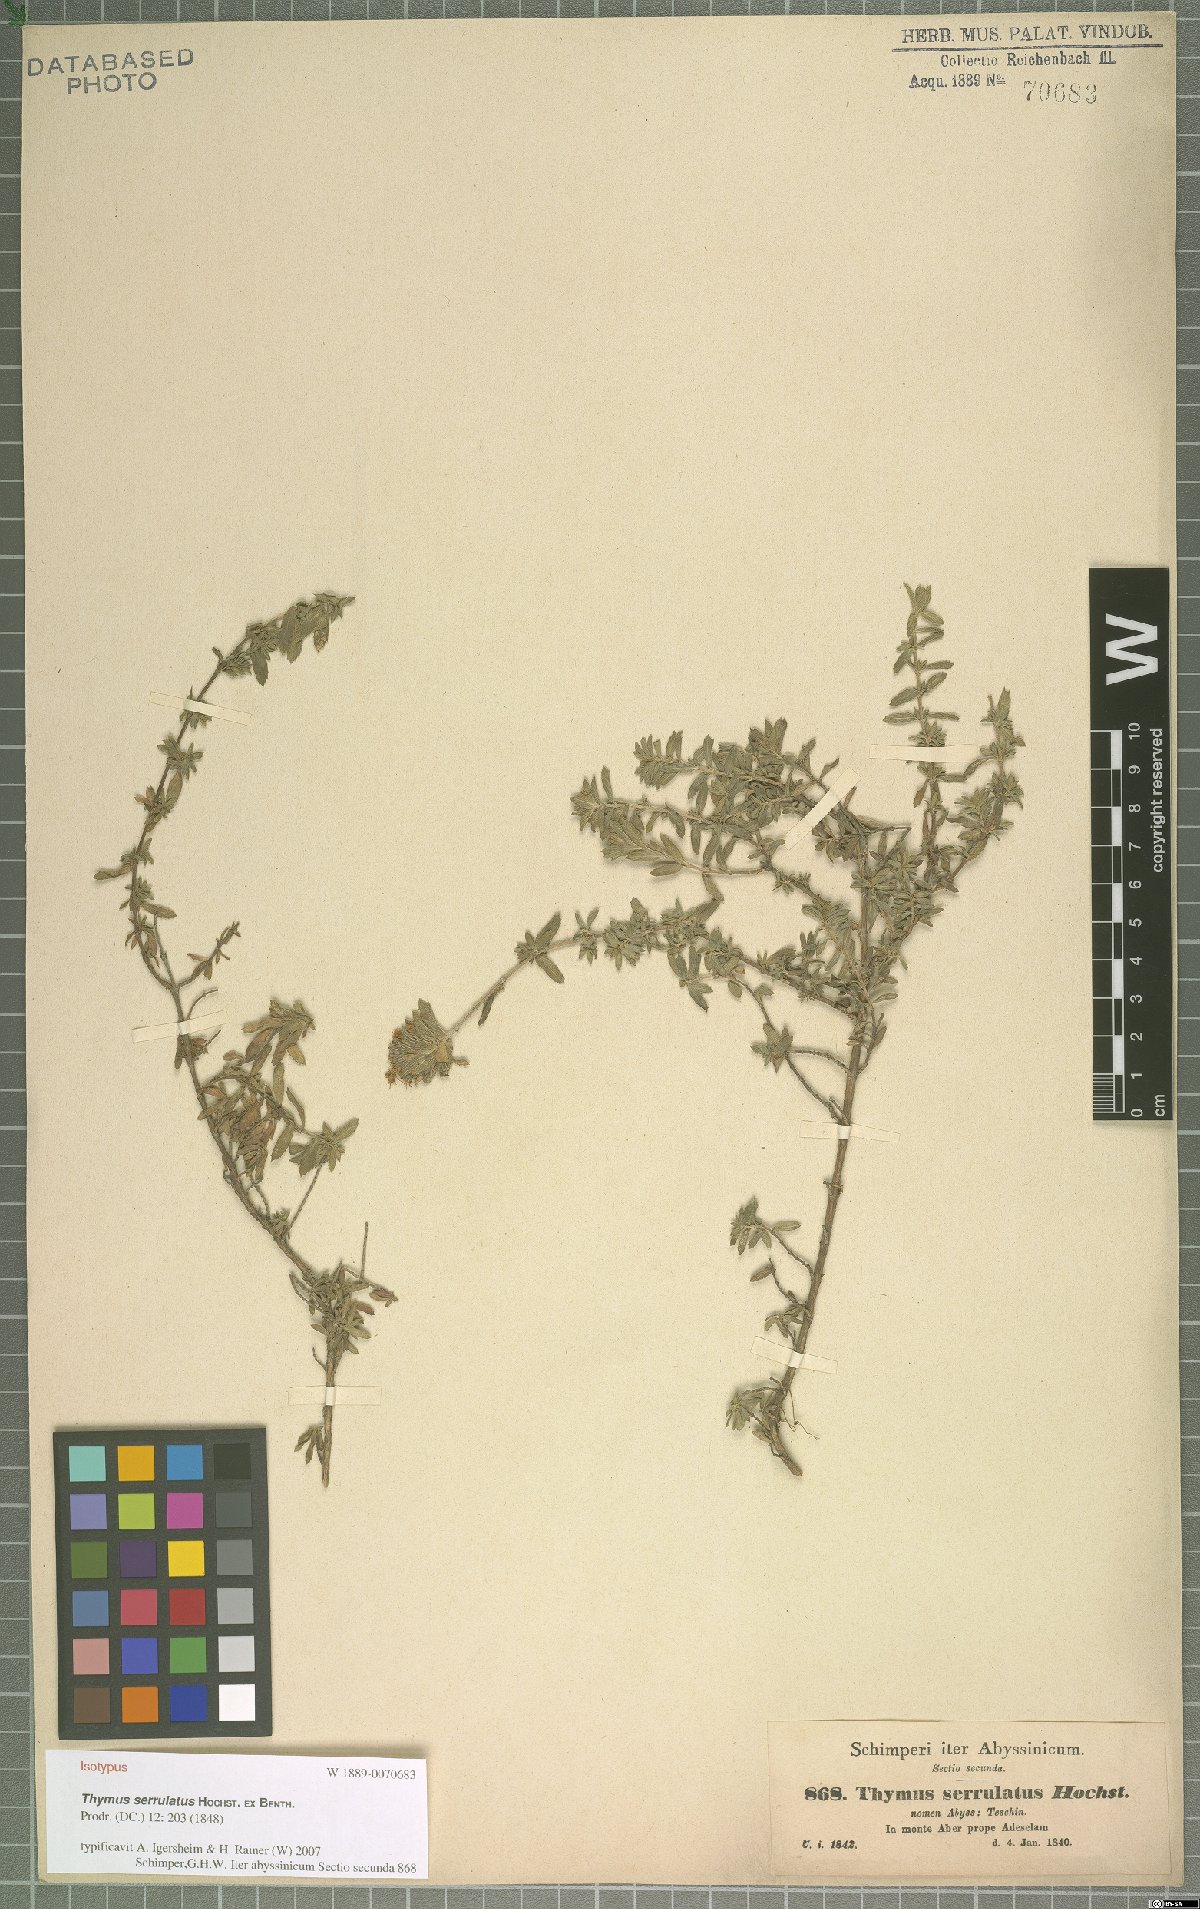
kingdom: Plantae
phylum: Tracheophyta
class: Magnoliopsida
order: Lamiales
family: Lamiaceae
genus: Thymus
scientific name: Thymus serrulatus
